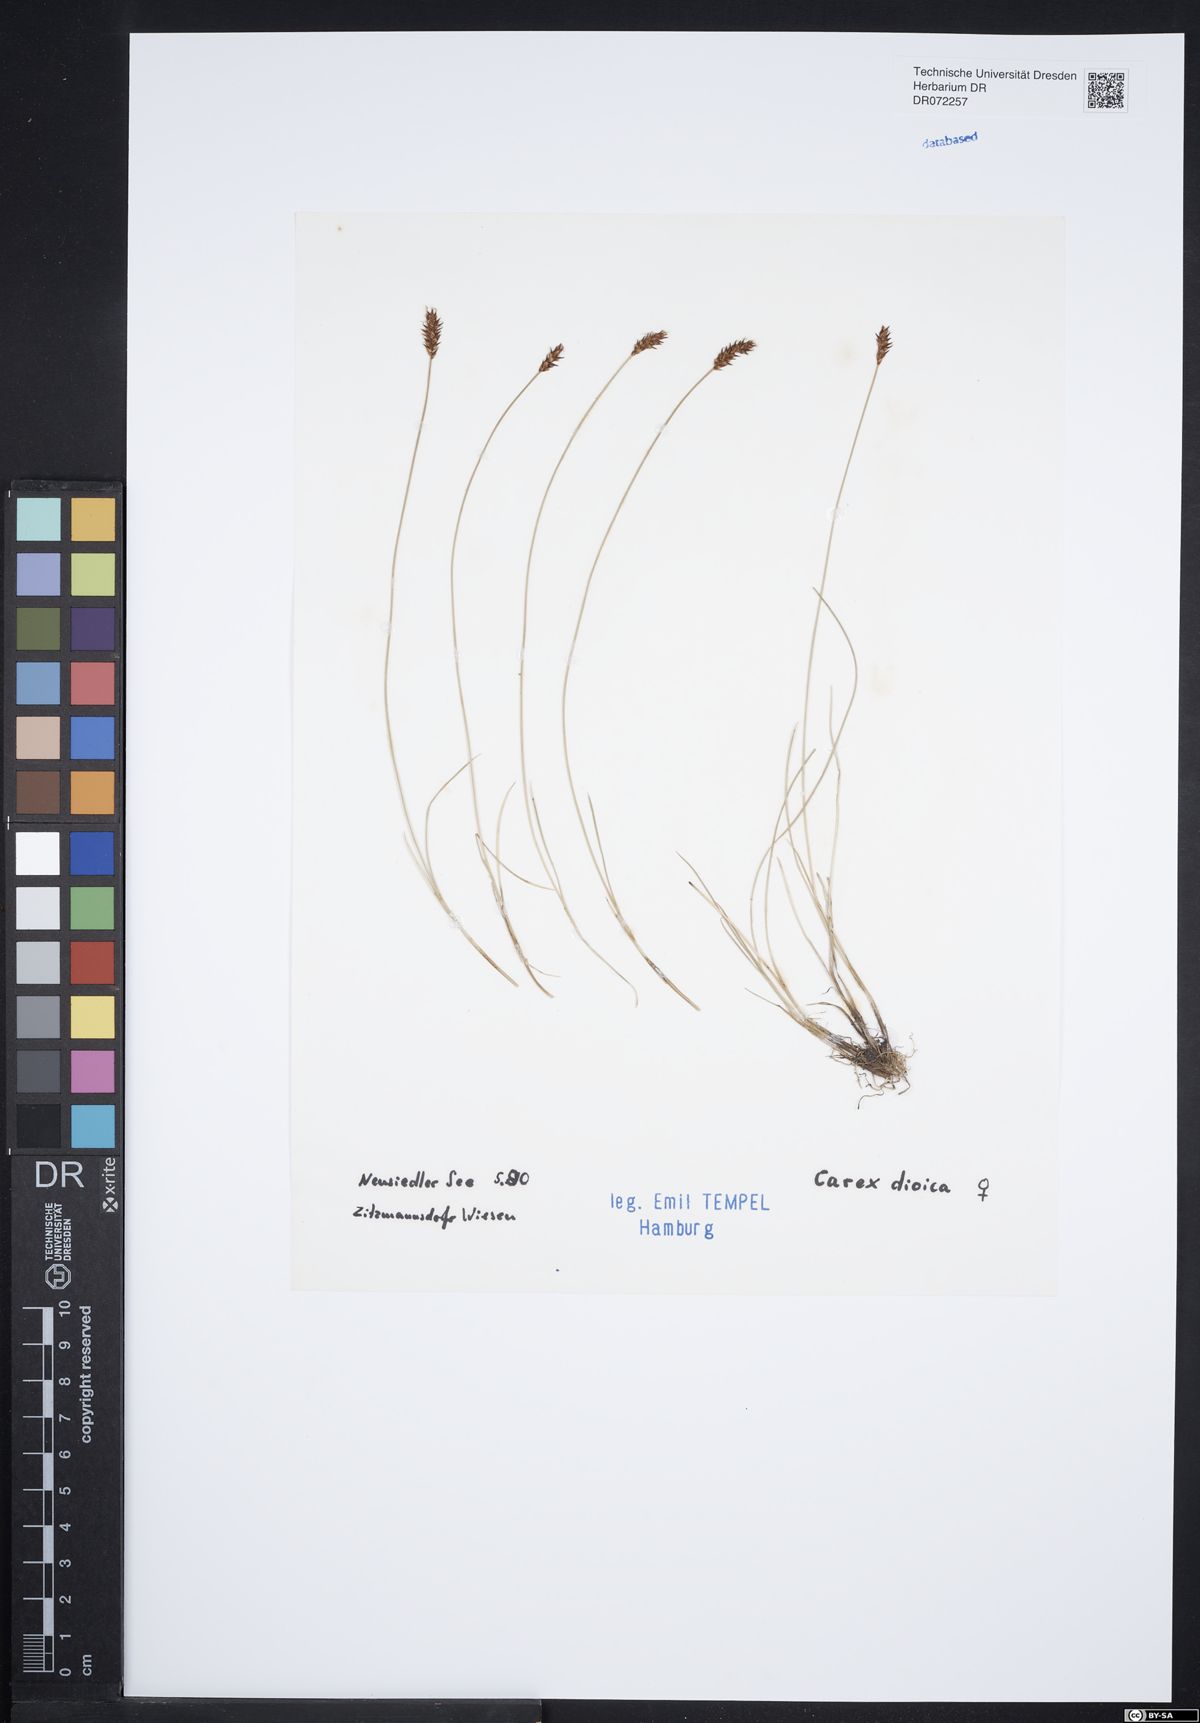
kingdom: Plantae
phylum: Tracheophyta
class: Liliopsida
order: Poales
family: Cyperaceae
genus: Carex
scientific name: Carex dioica
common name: Dioecious sedge
